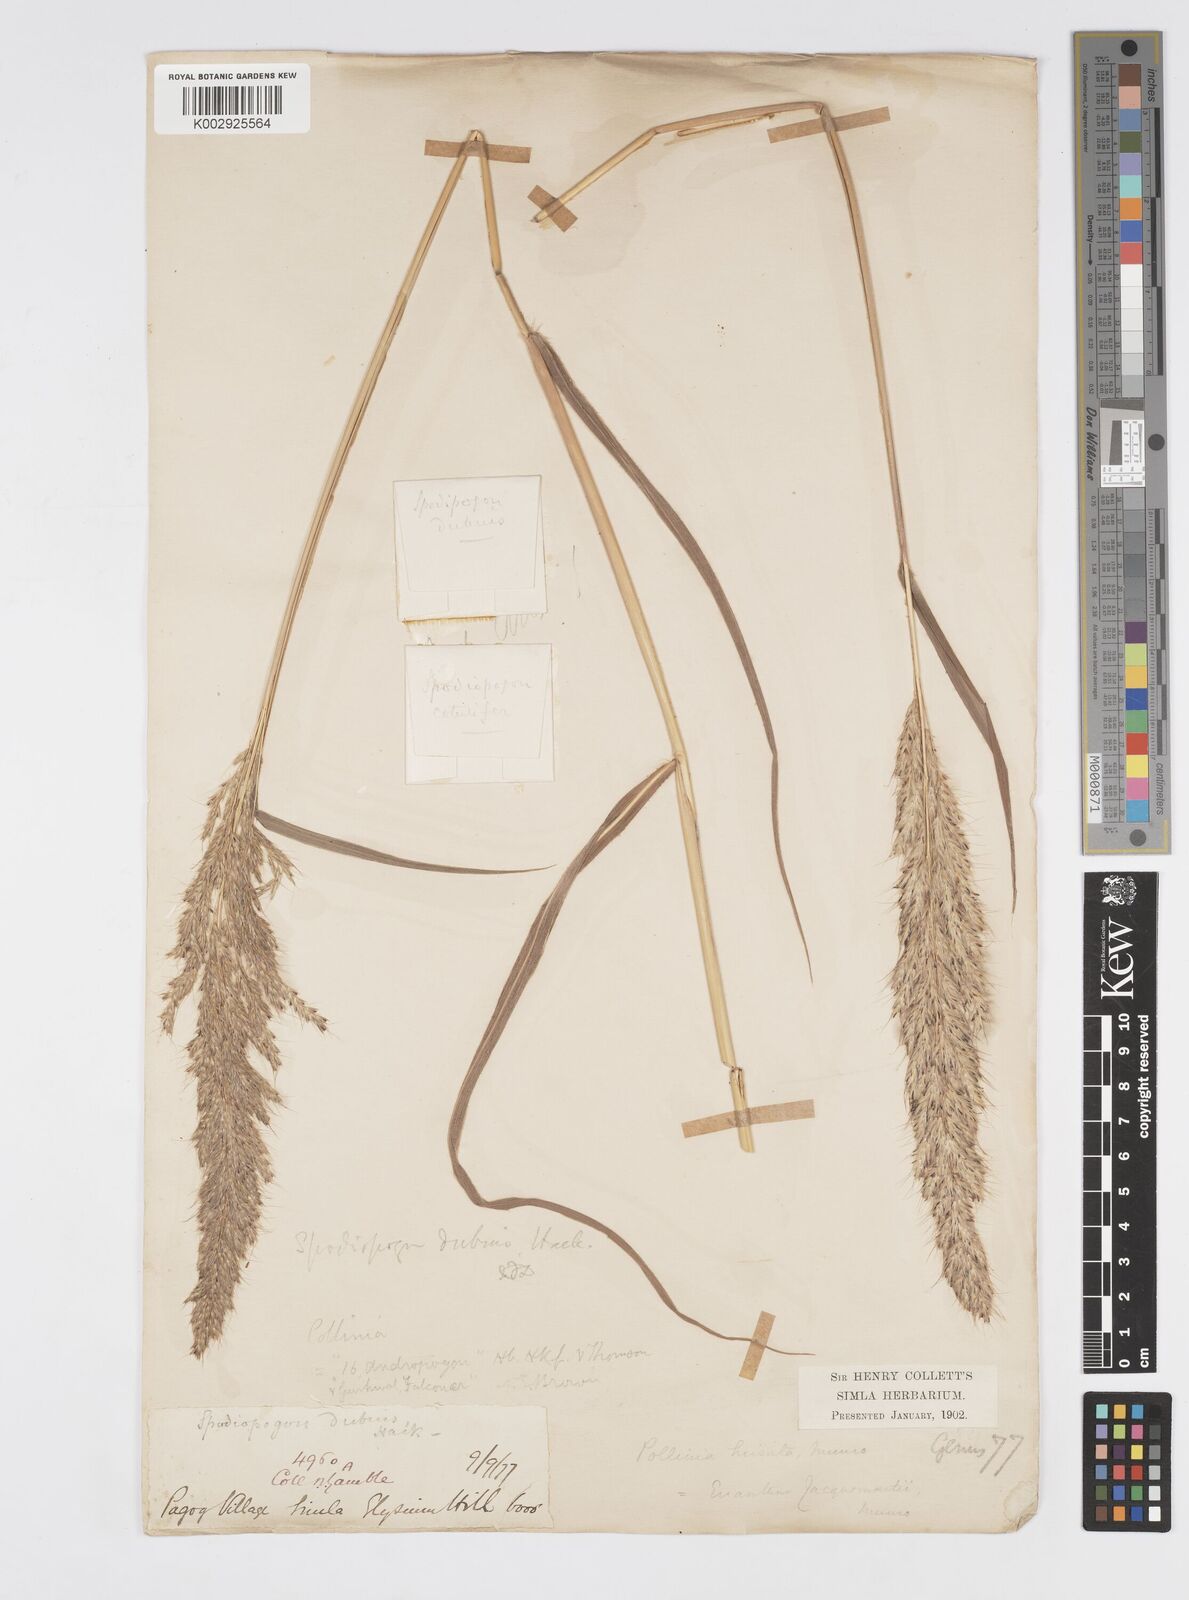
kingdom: Plantae
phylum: Tracheophyta
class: Liliopsida
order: Poales
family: Poaceae
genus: Spodiopogon
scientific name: Spodiopogon dubius
